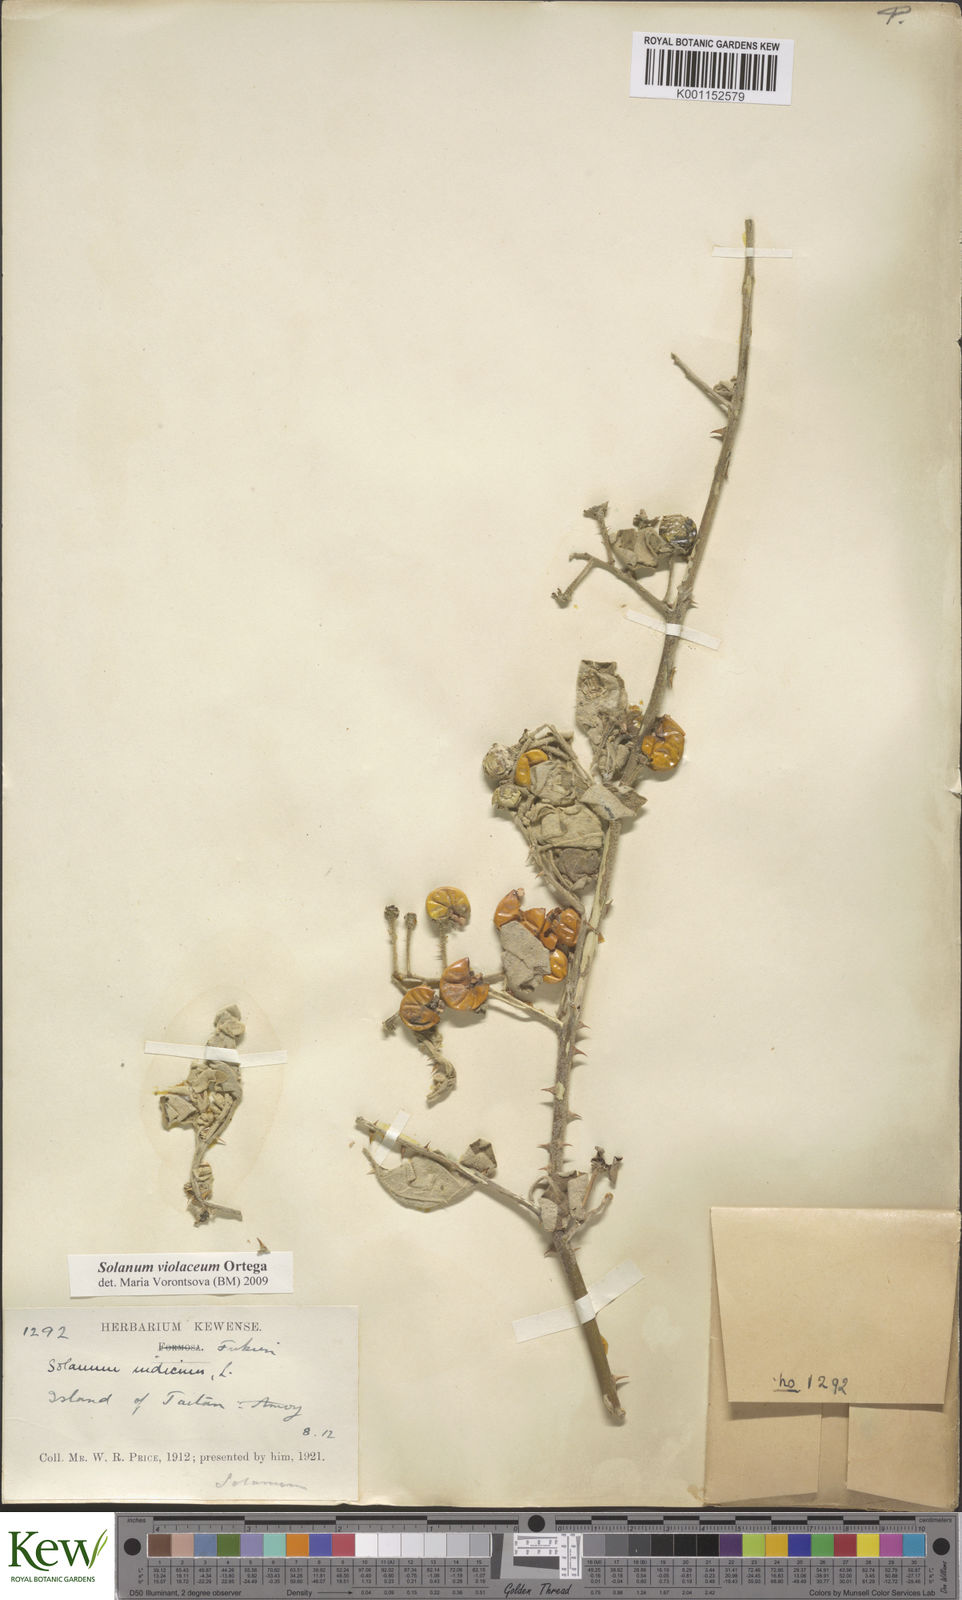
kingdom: Plantae
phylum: Tracheophyta
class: Magnoliopsida
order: Solanales
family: Solanaceae
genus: Solanum
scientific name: Solanum violaceum
